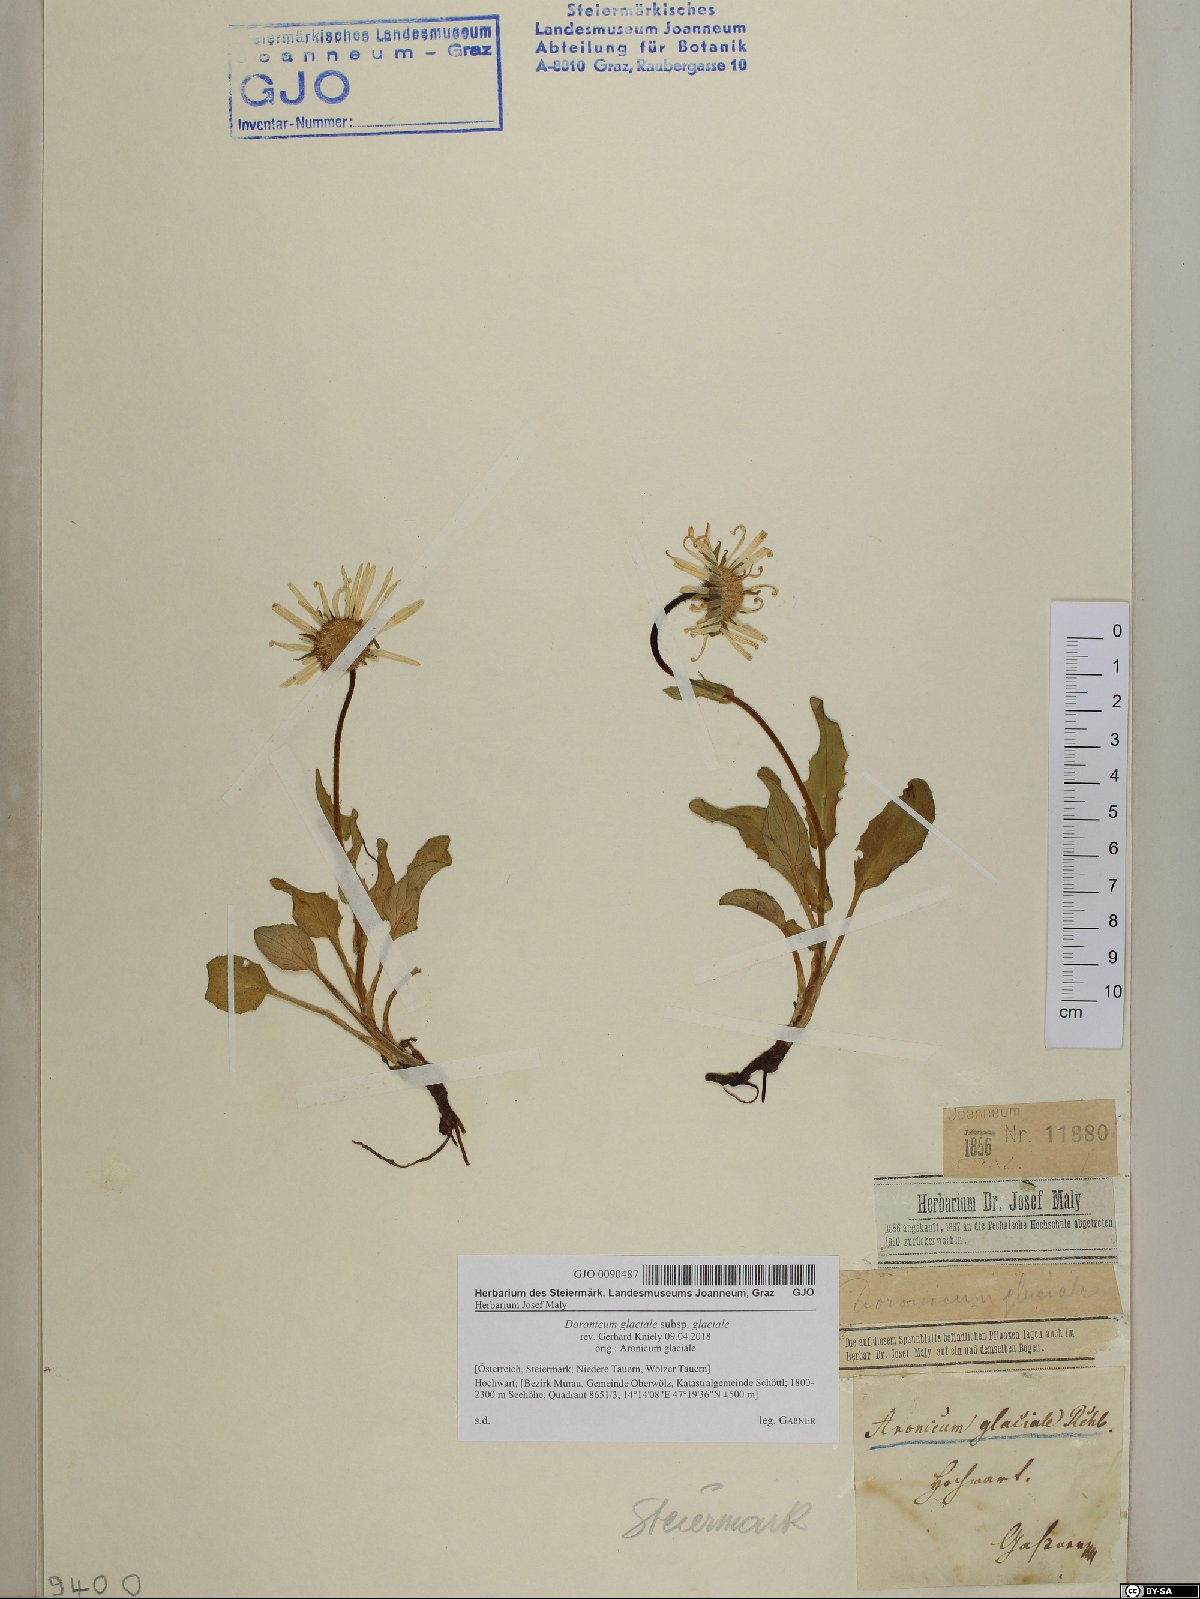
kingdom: Plantae
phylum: Tracheophyta
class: Magnoliopsida
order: Asterales
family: Asteraceae
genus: Doronicum
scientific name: Doronicum glaciale
